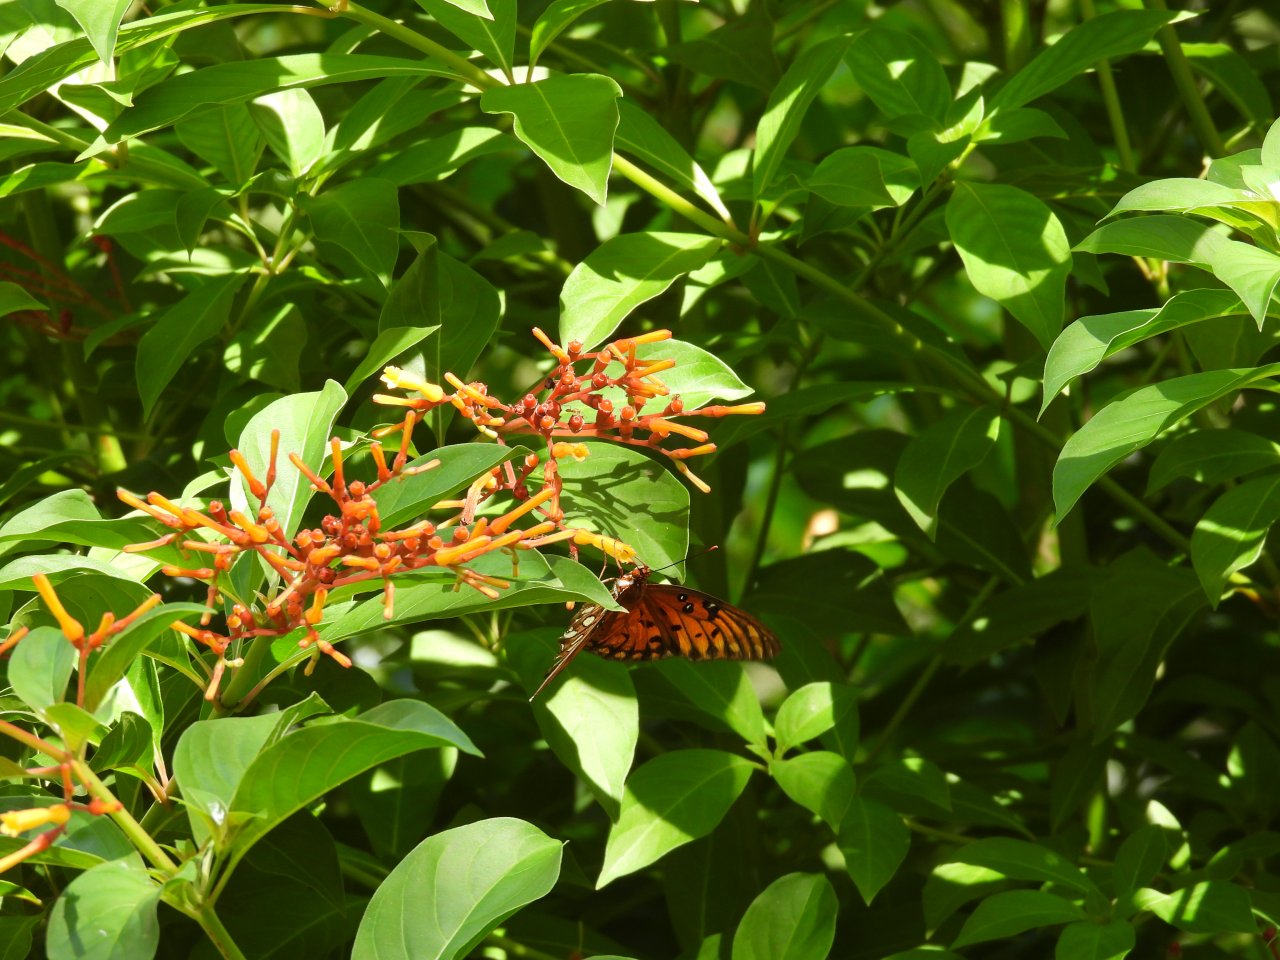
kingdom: Animalia
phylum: Arthropoda
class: Insecta
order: Lepidoptera
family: Nymphalidae
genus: Dione
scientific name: Dione vanillae
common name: Gulf Fritillary
